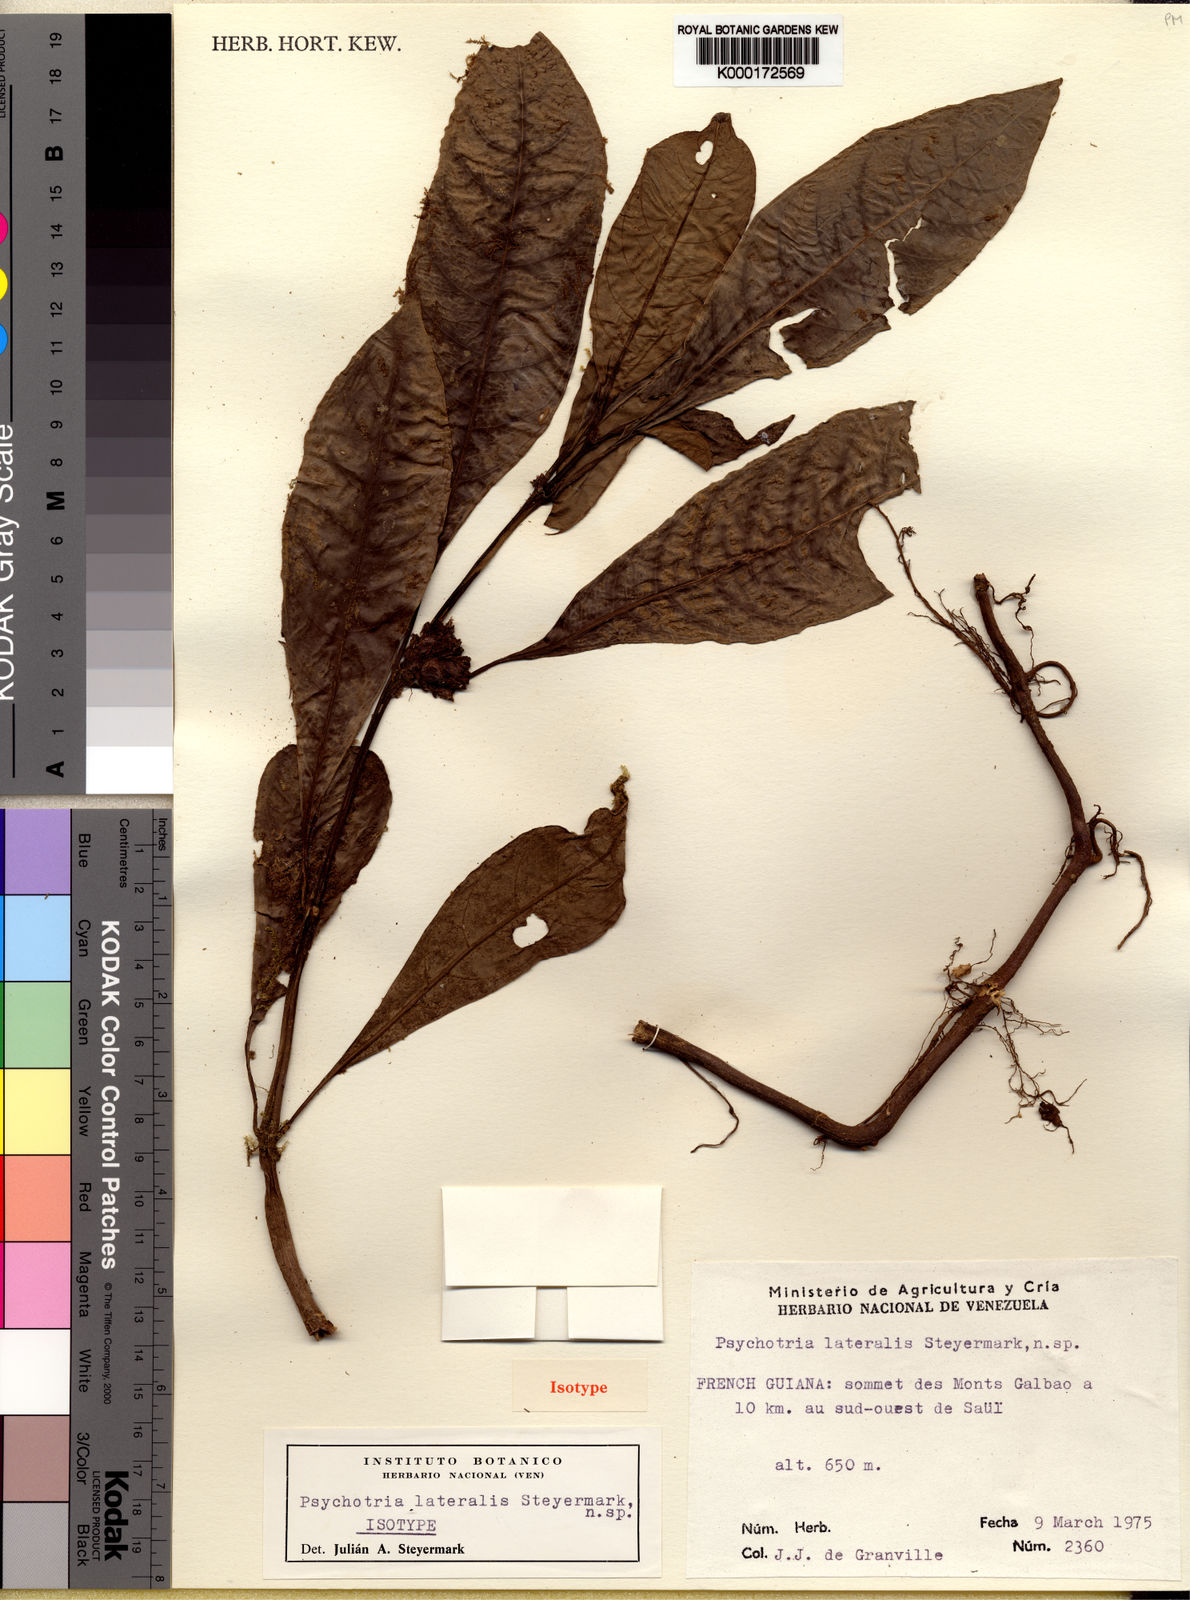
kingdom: Plantae
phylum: Tracheophyta
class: Magnoliopsida
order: Gentianales
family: Rubiaceae
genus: Notopleura
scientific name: Notopleura lateralis
